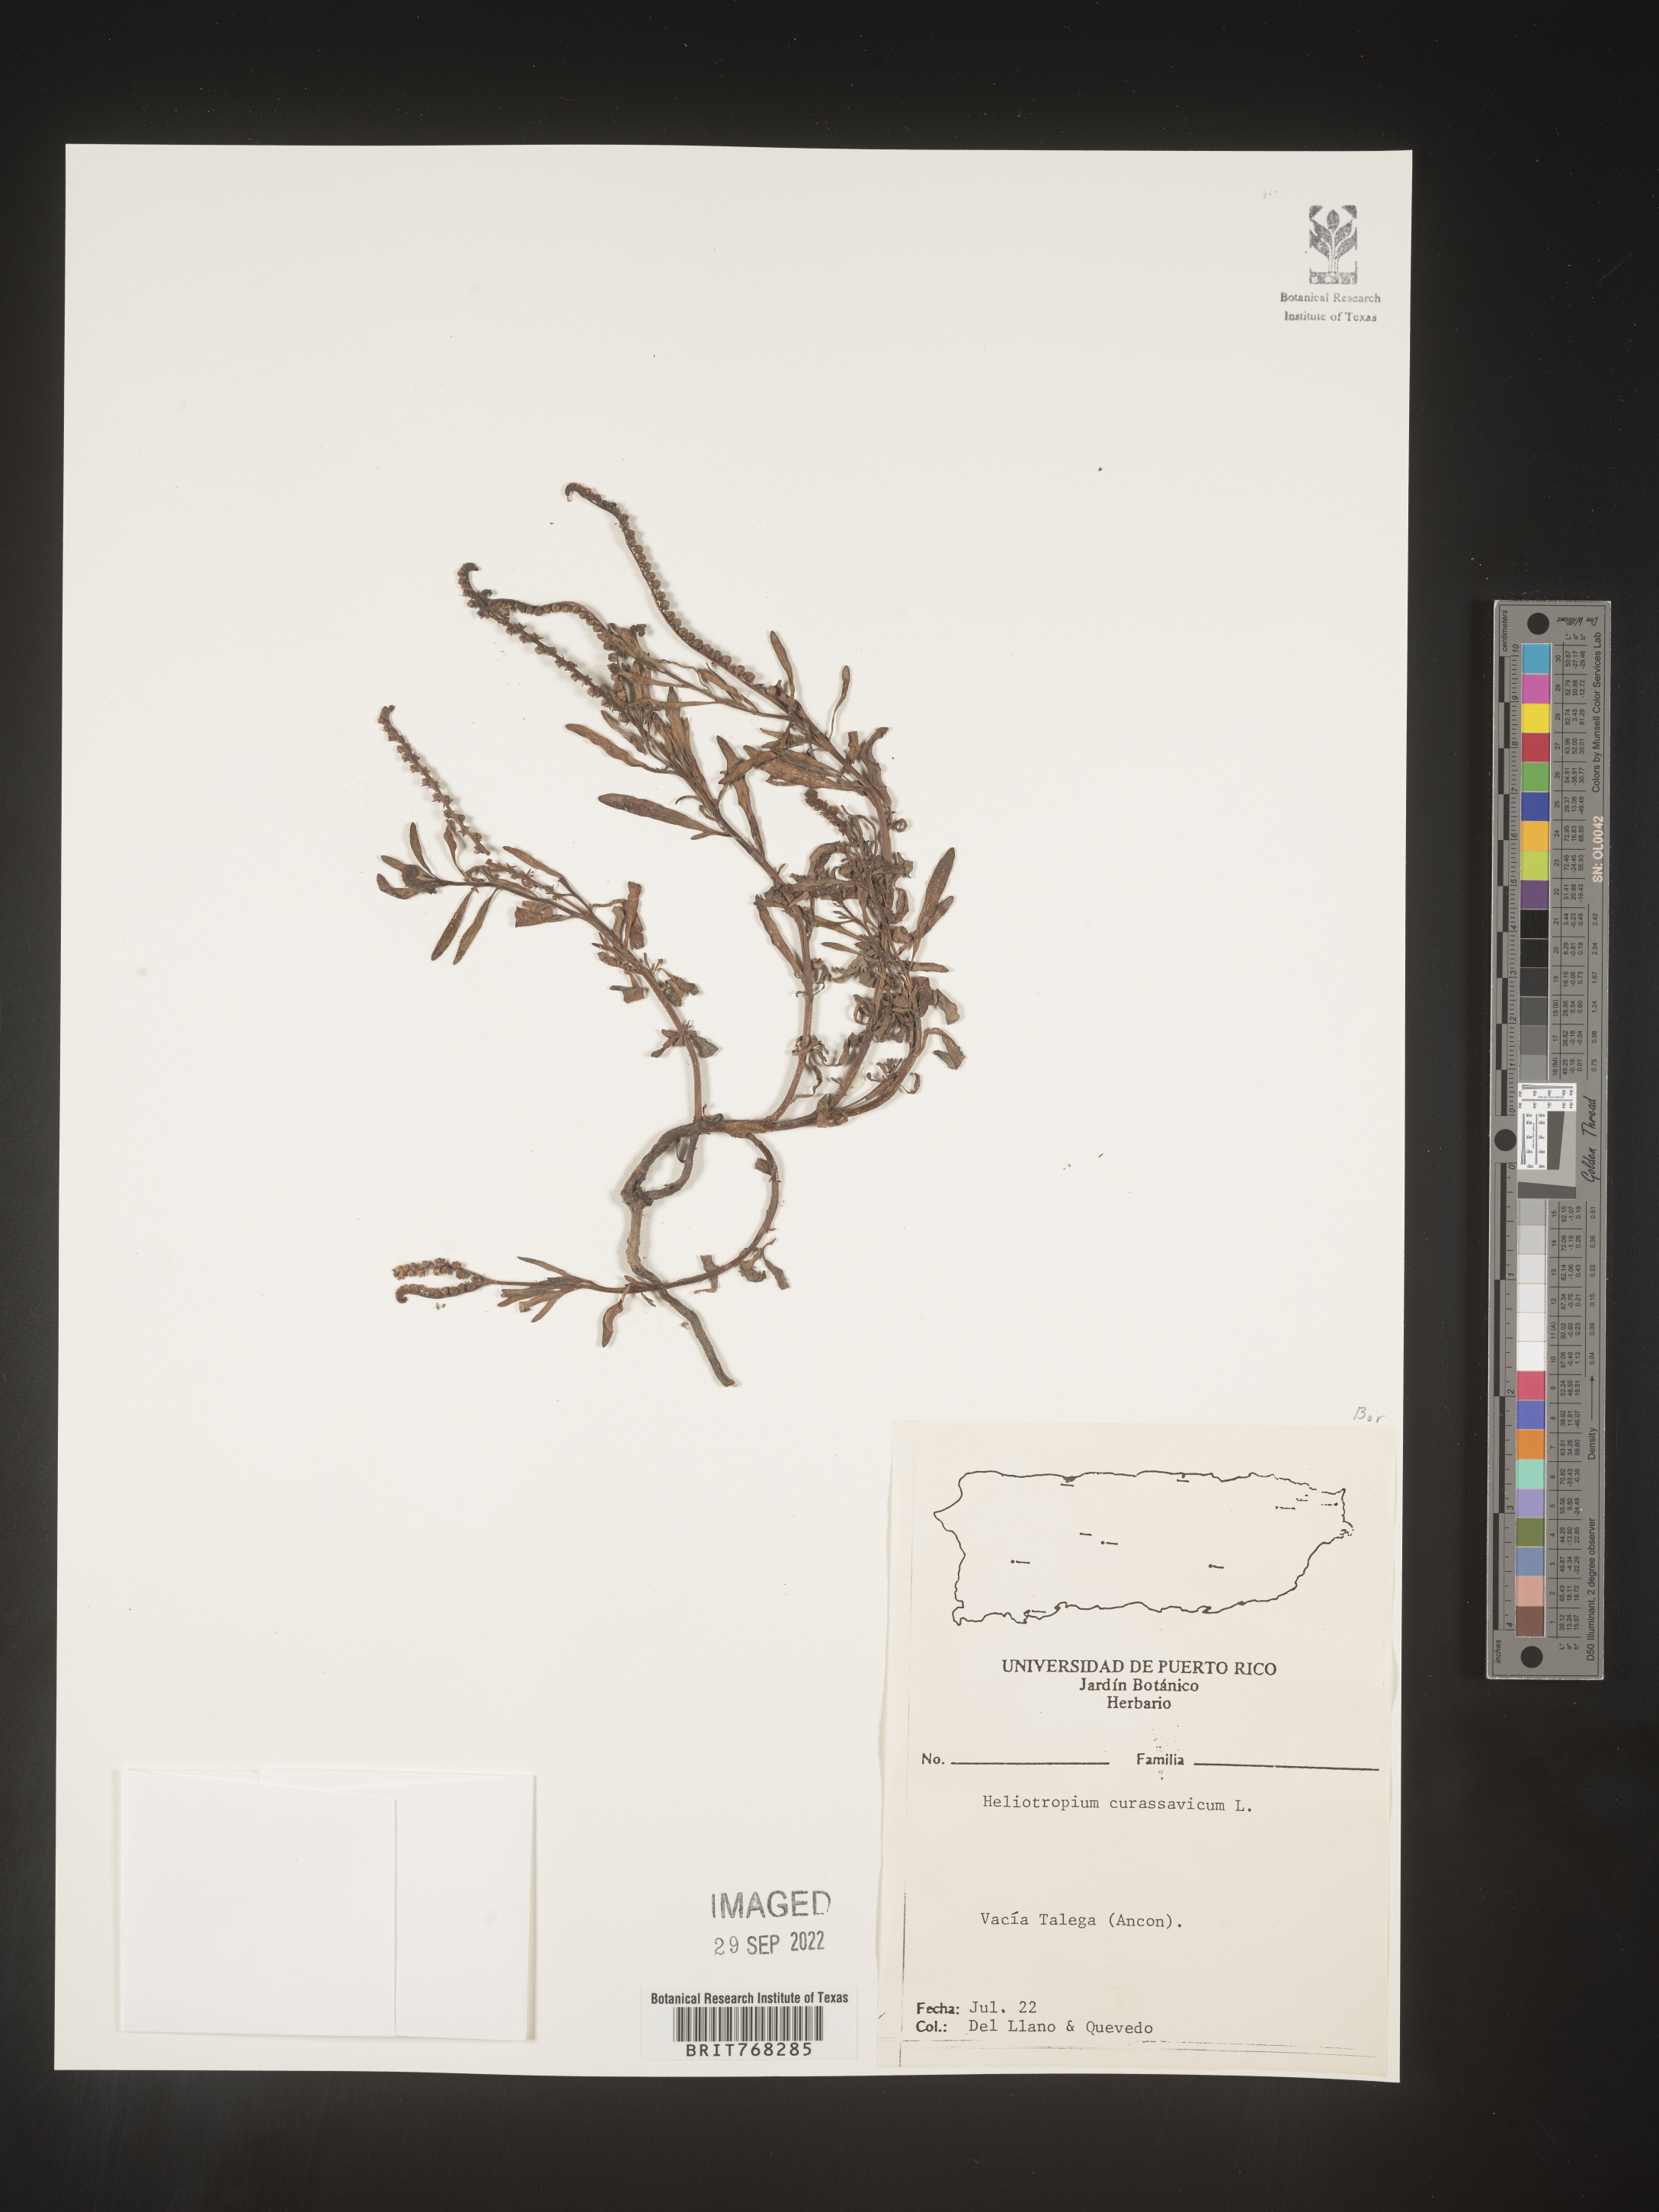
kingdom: Plantae
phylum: Tracheophyta
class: Magnoliopsida
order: Boraginales
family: Heliotropiaceae
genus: Heliotropium
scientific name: Heliotropium
